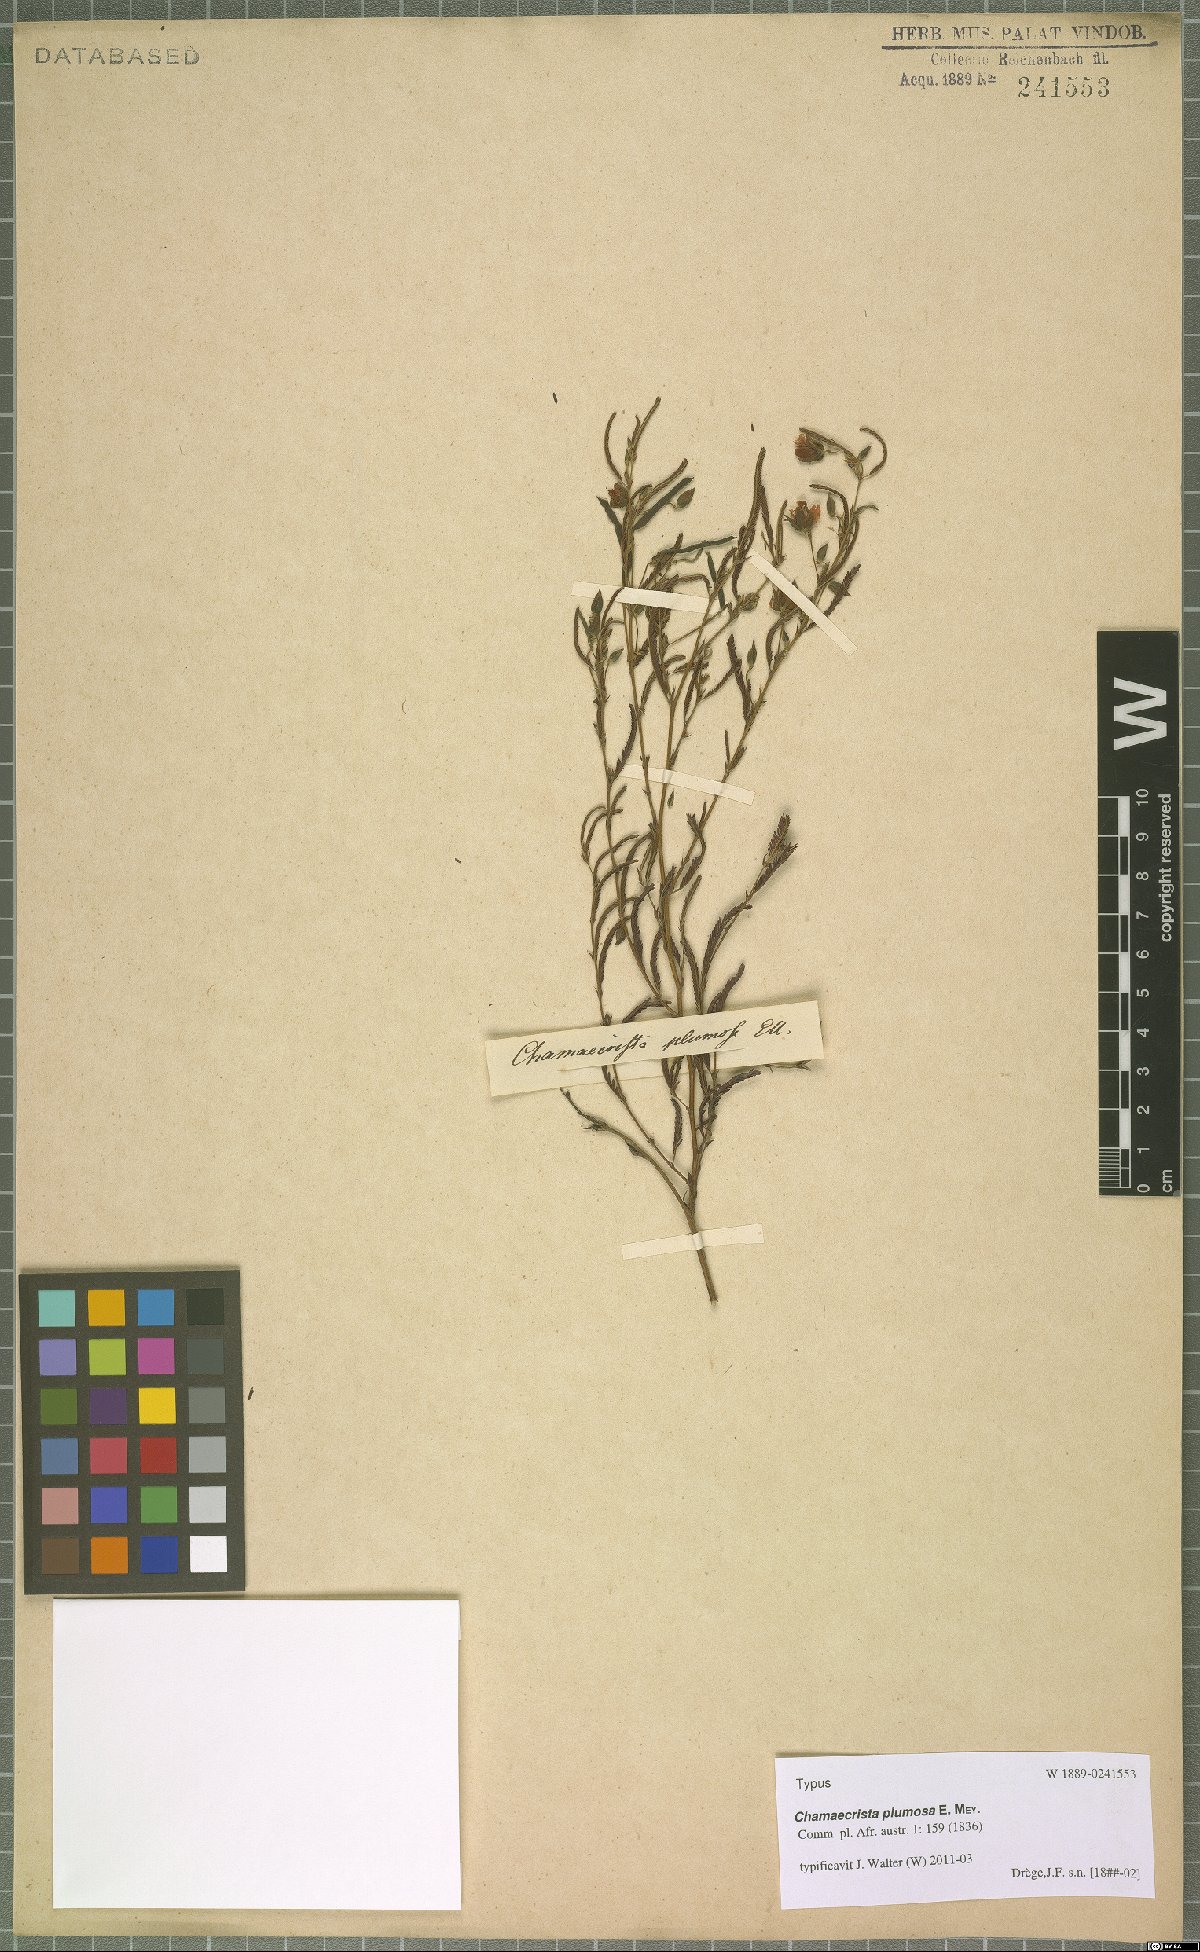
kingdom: Plantae
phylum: Tracheophyta
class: Magnoliopsida
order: Fabales
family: Fabaceae
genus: Chamaecrista
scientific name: Chamaecrista plumosa
